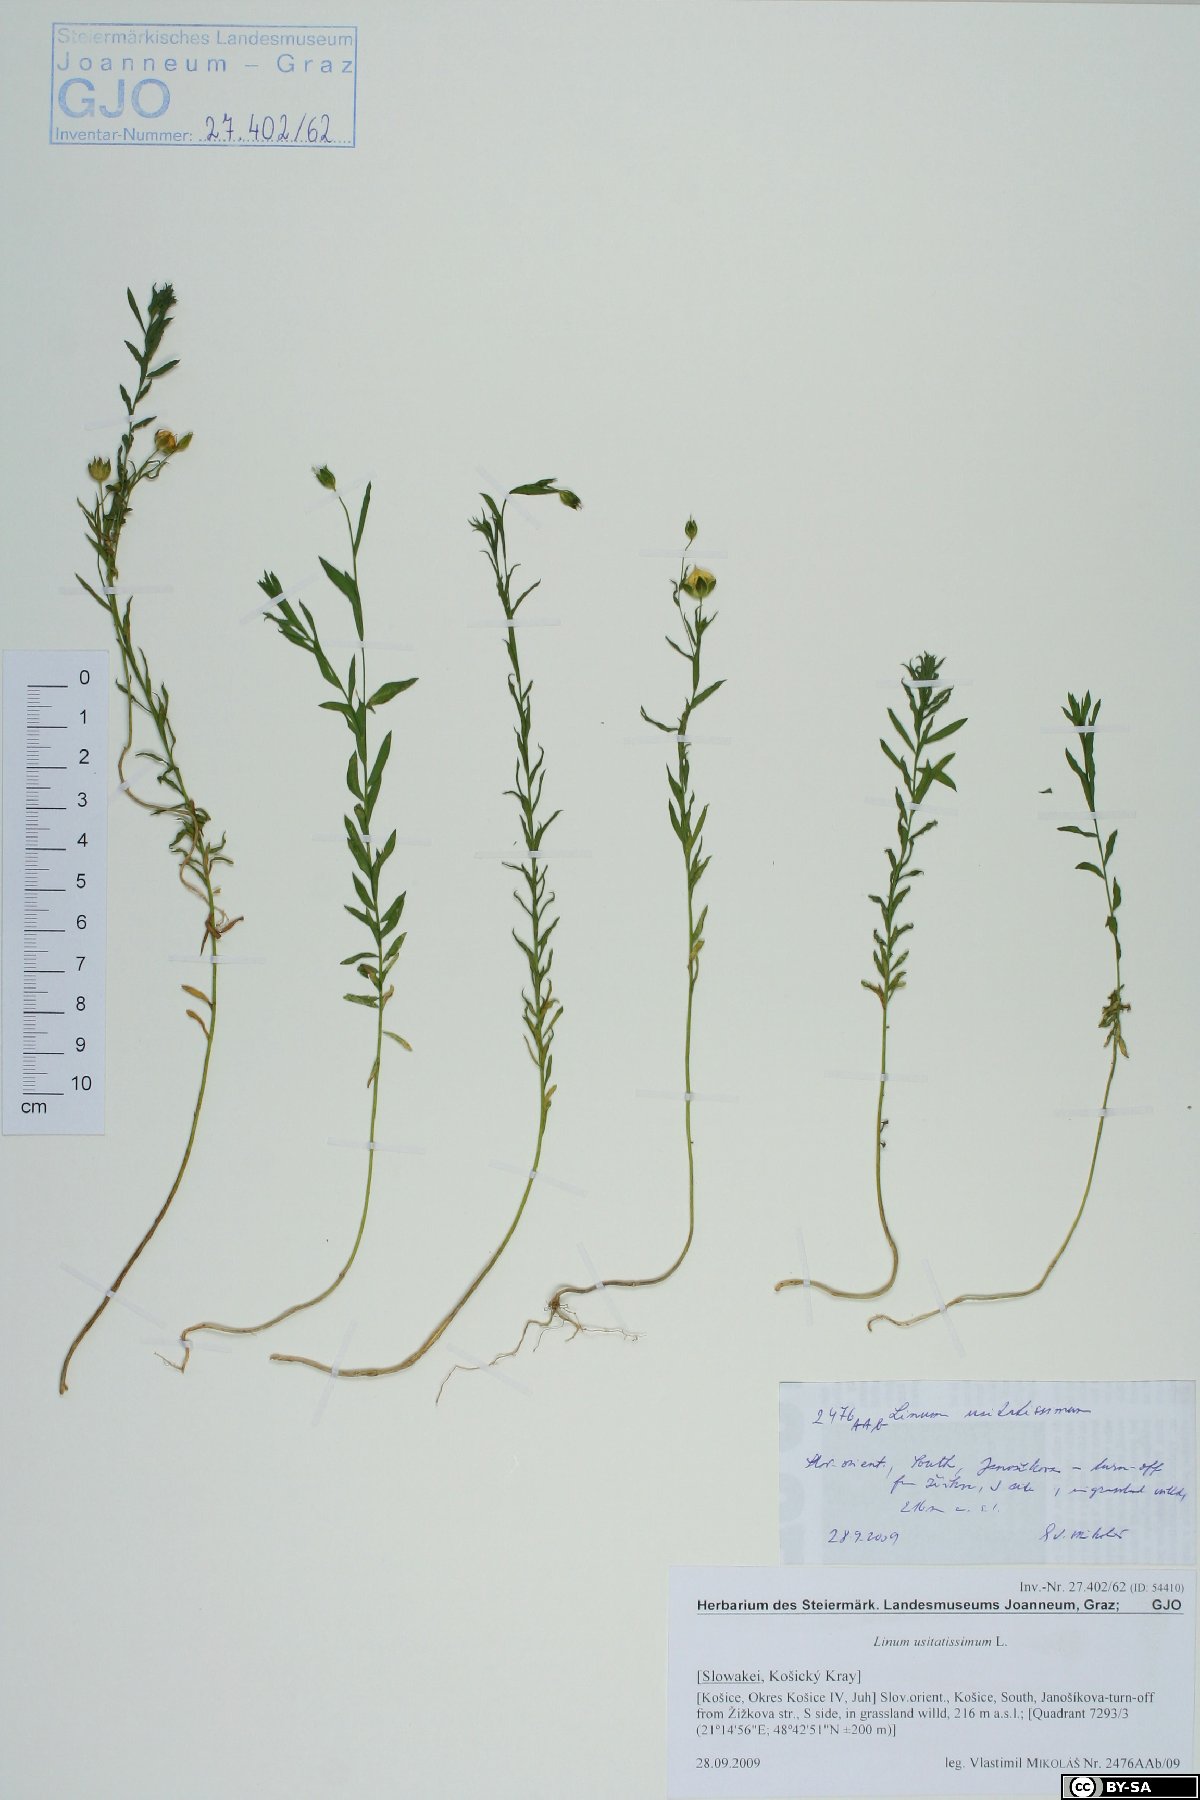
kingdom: Plantae
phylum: Tracheophyta
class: Magnoliopsida
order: Malpighiales
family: Linaceae
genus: Linum
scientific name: Linum usitatissimum
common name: Flax
